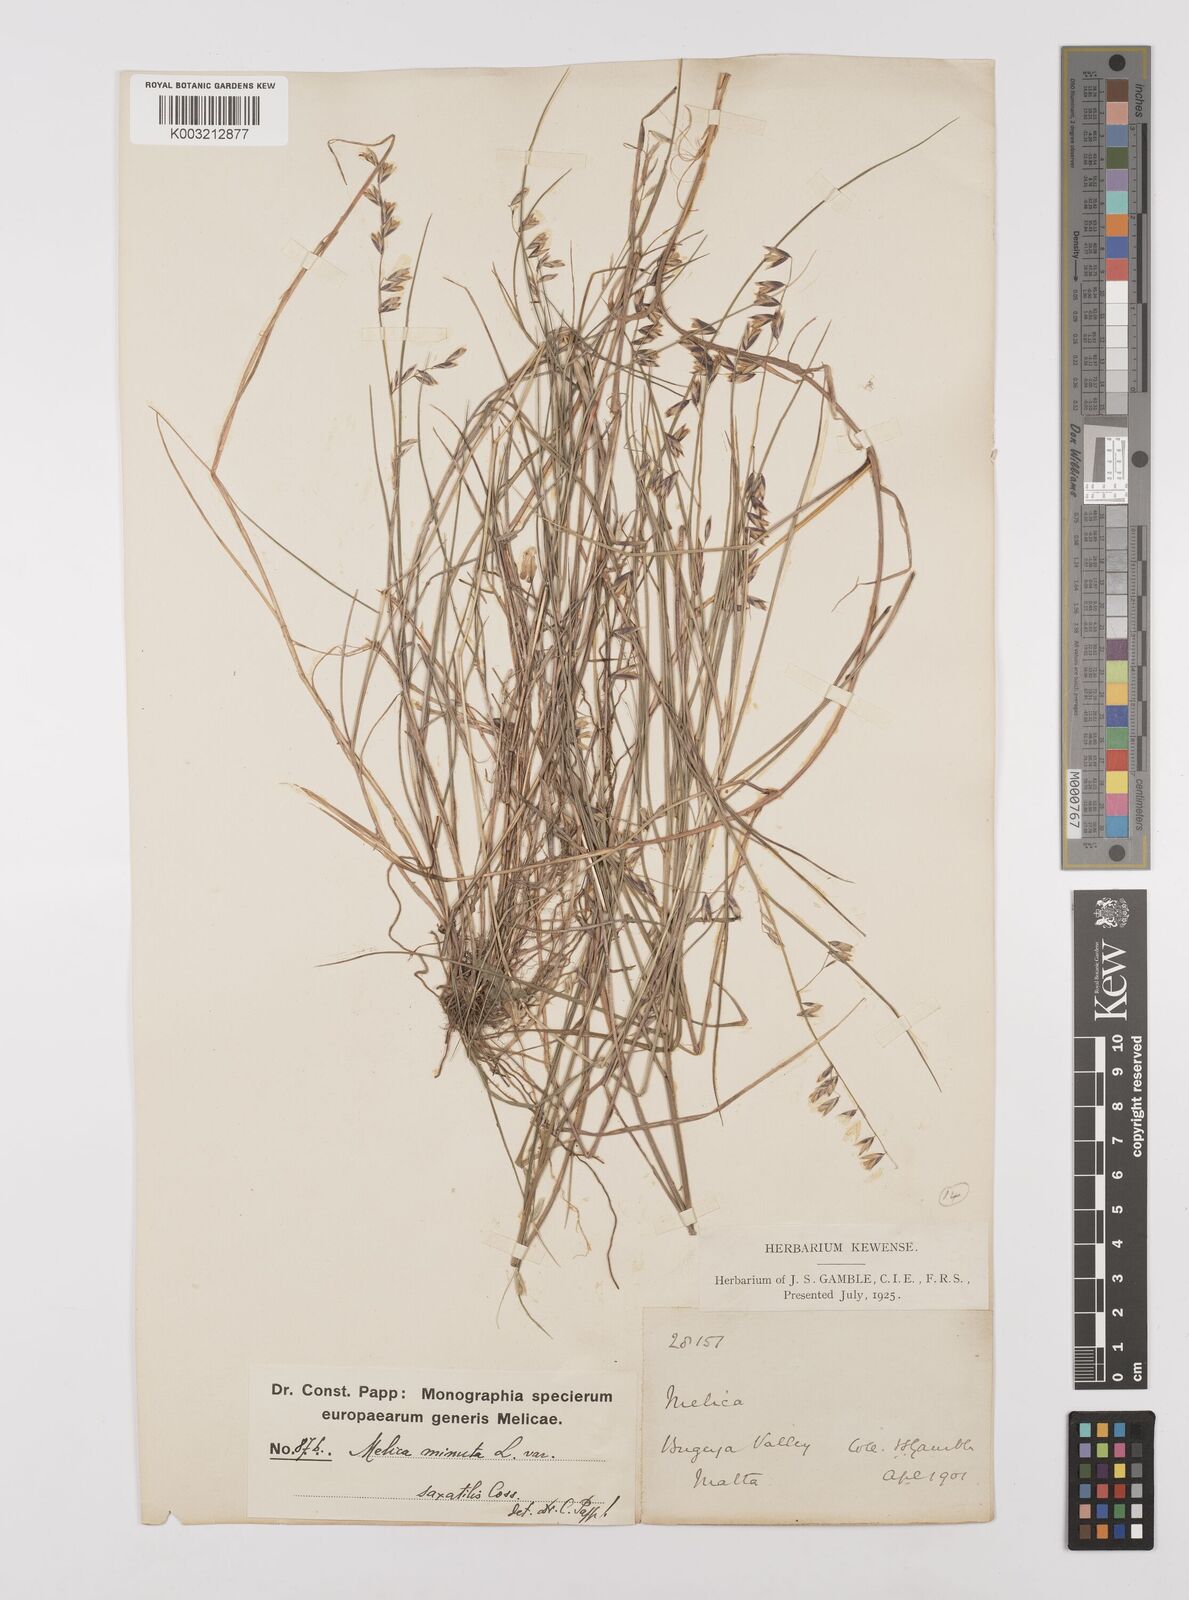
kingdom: Plantae
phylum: Tracheophyta
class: Liliopsida
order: Poales
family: Poaceae
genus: Melica
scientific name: Melica minuta
